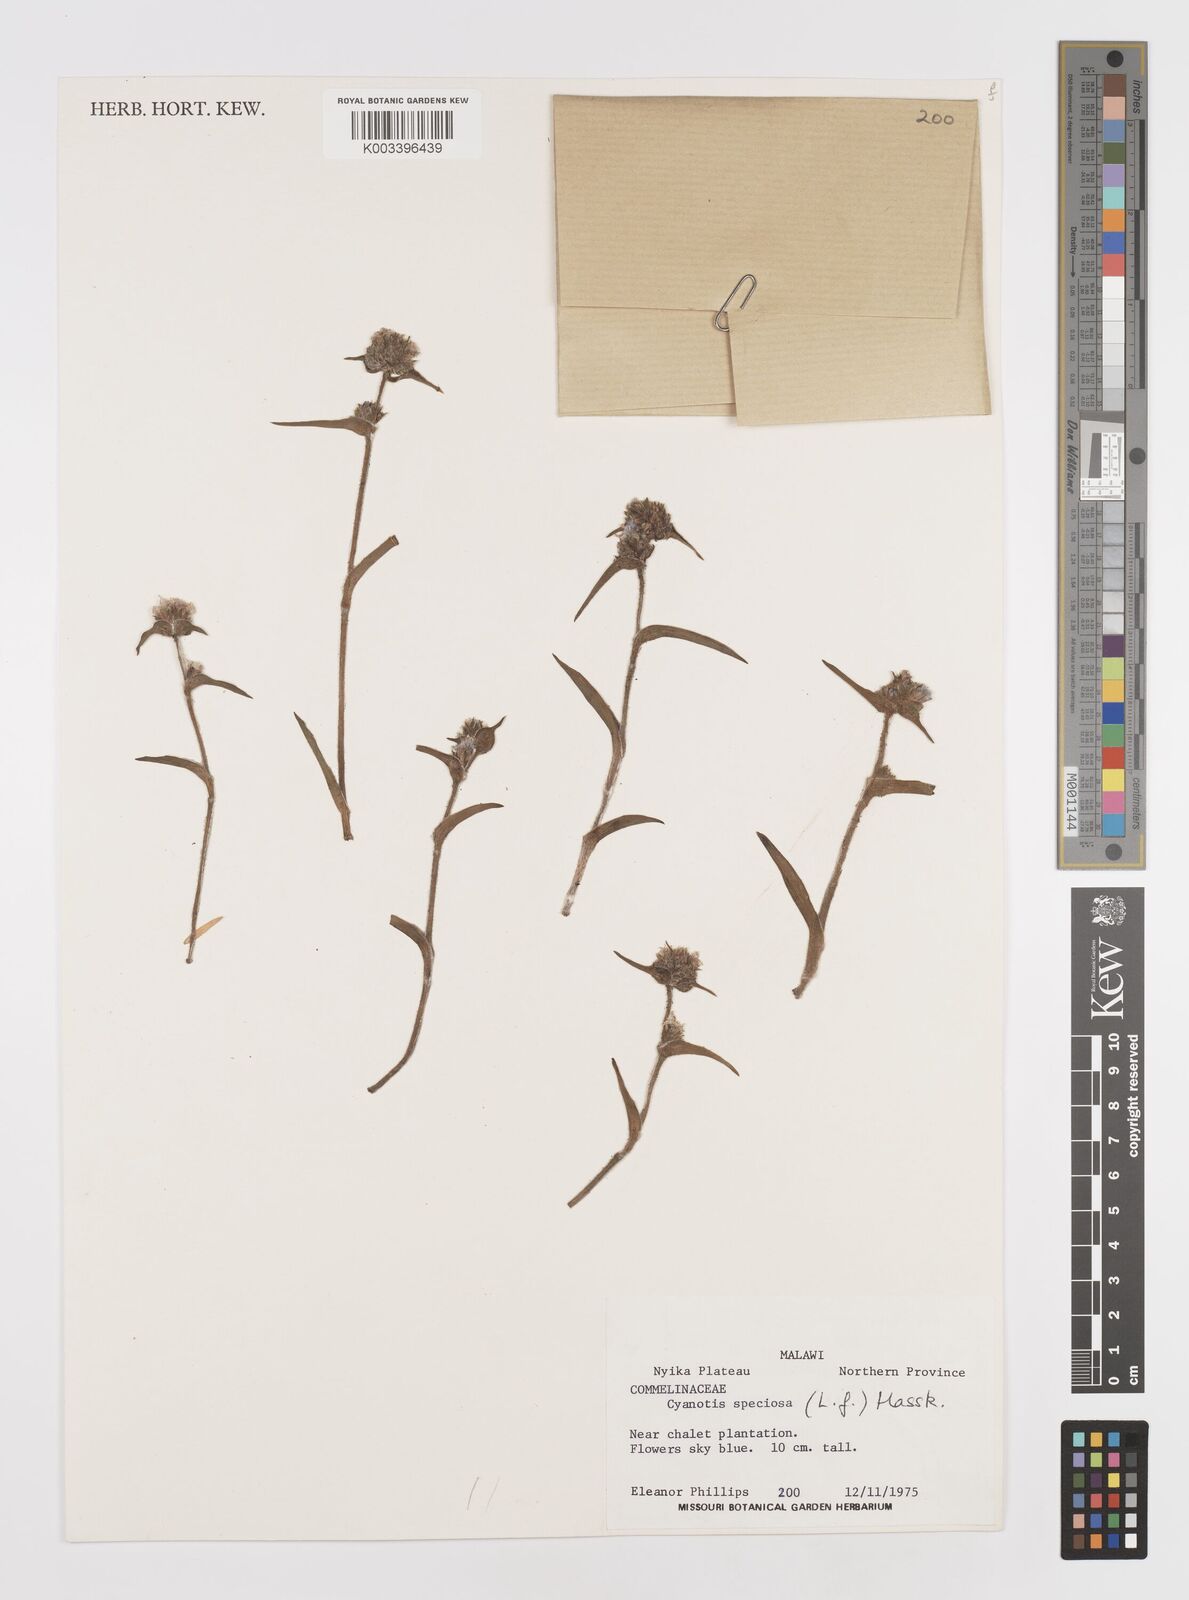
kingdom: Plantae
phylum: Tracheophyta
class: Liliopsida
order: Commelinales
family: Commelinaceae
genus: Cyanotis
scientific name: Cyanotis speciosa
